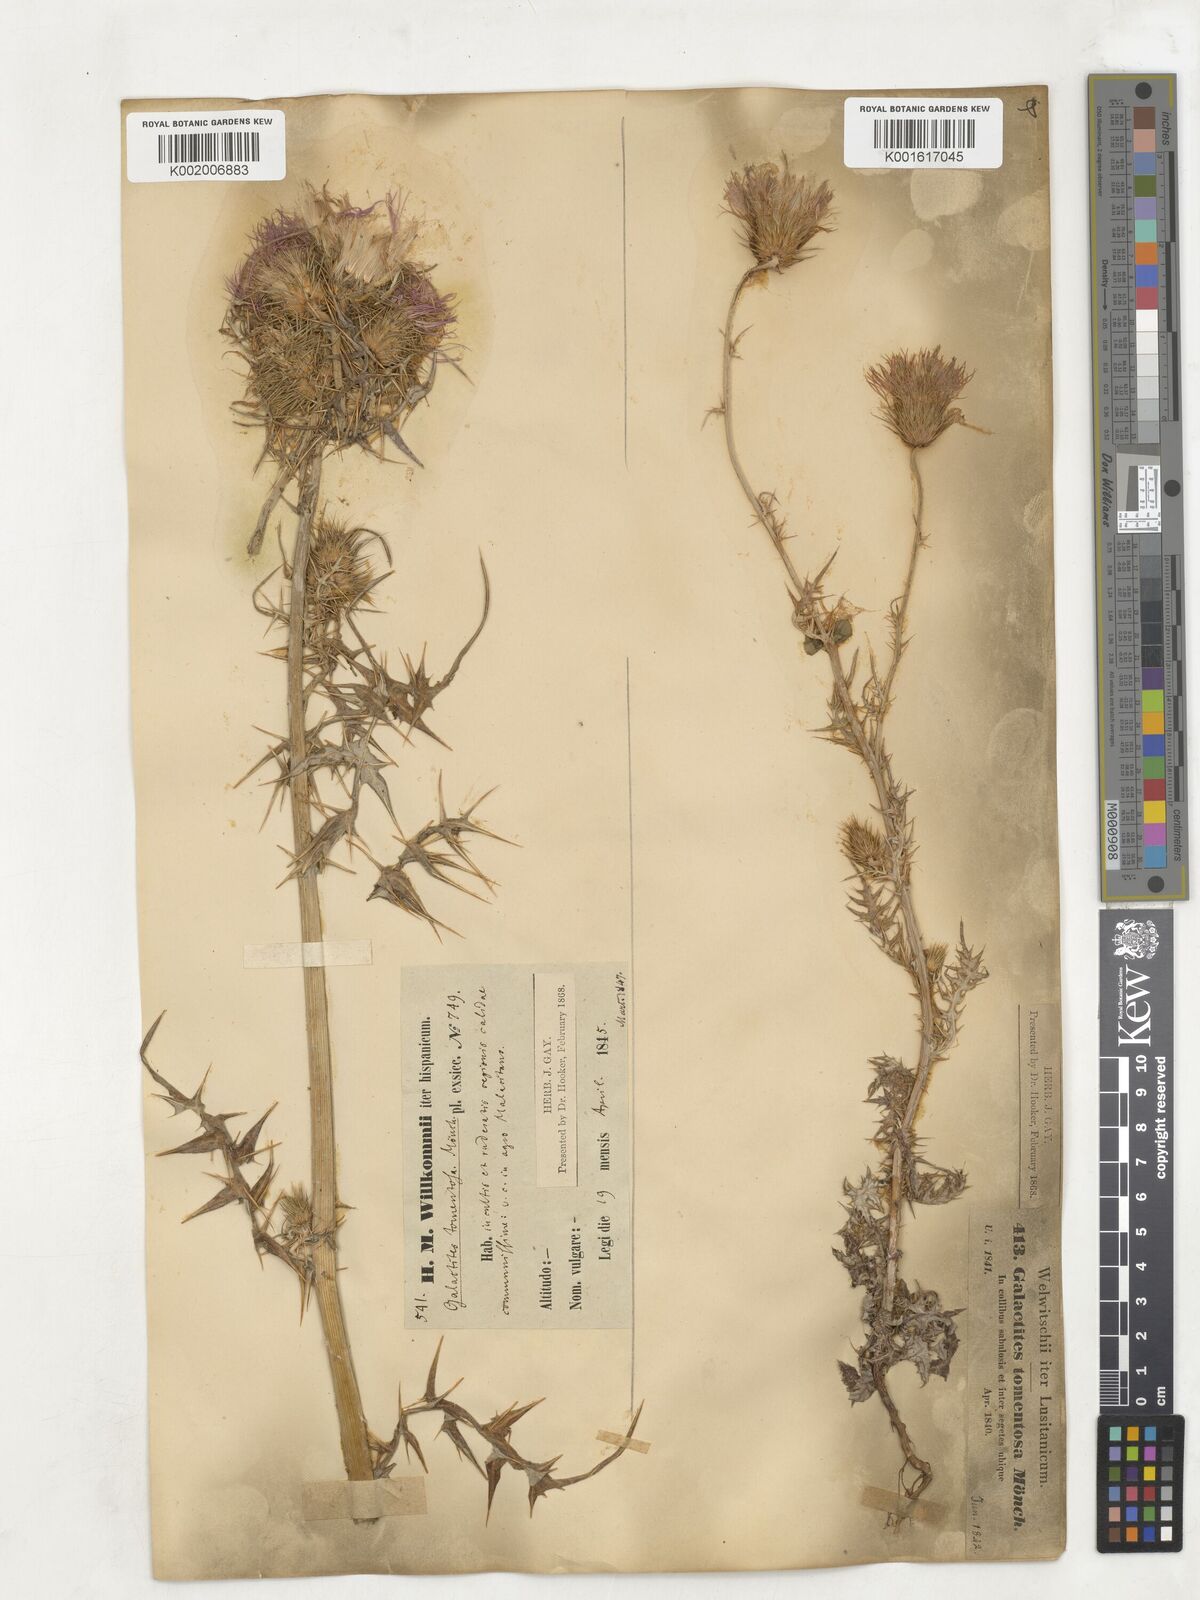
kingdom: Plantae
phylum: Tracheophyta
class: Magnoliopsida
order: Asterales
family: Asteraceae
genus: Galactites
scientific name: Galactites
